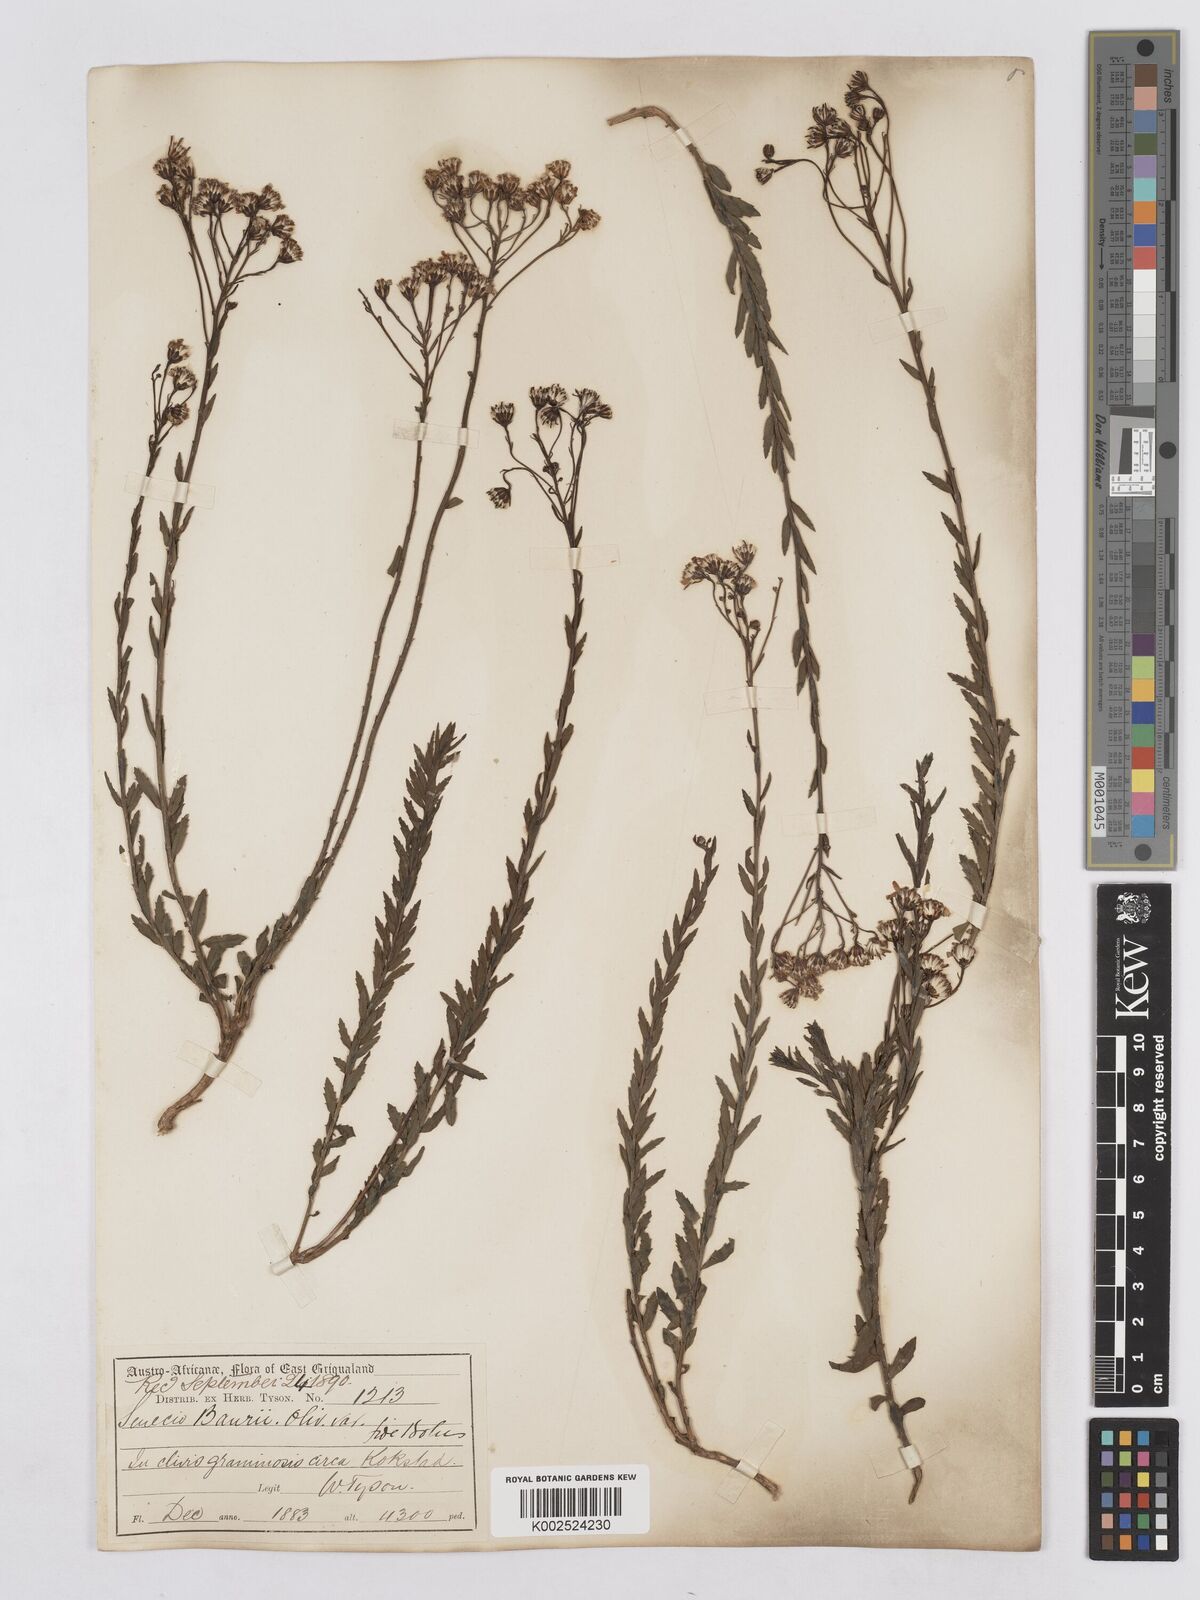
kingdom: Plantae
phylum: Tracheophyta
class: Magnoliopsida
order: Asterales
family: Asteraceae
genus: Senecio
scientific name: Senecio baurii
